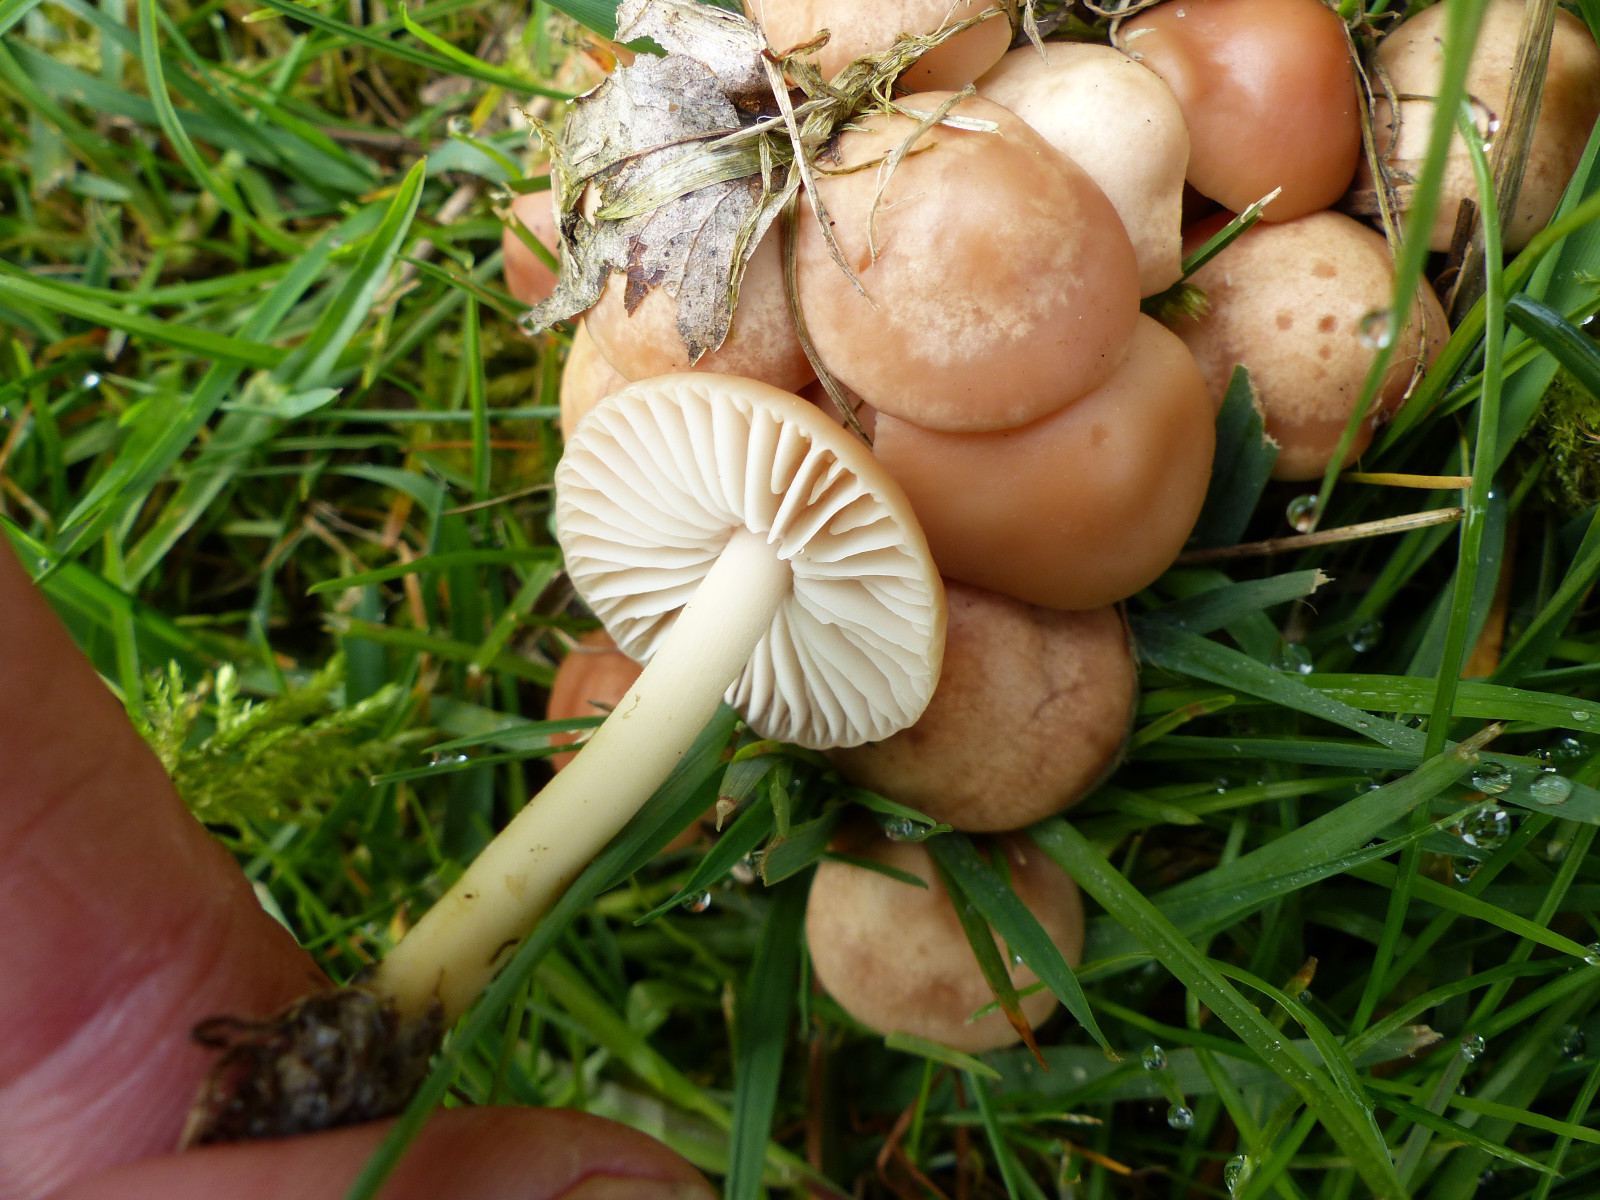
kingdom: Fungi
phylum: Basidiomycota
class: Agaricomycetes
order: Agaricales
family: Marasmiaceae
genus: Marasmius
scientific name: Marasmius oreades
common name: elledans-bruskhat
